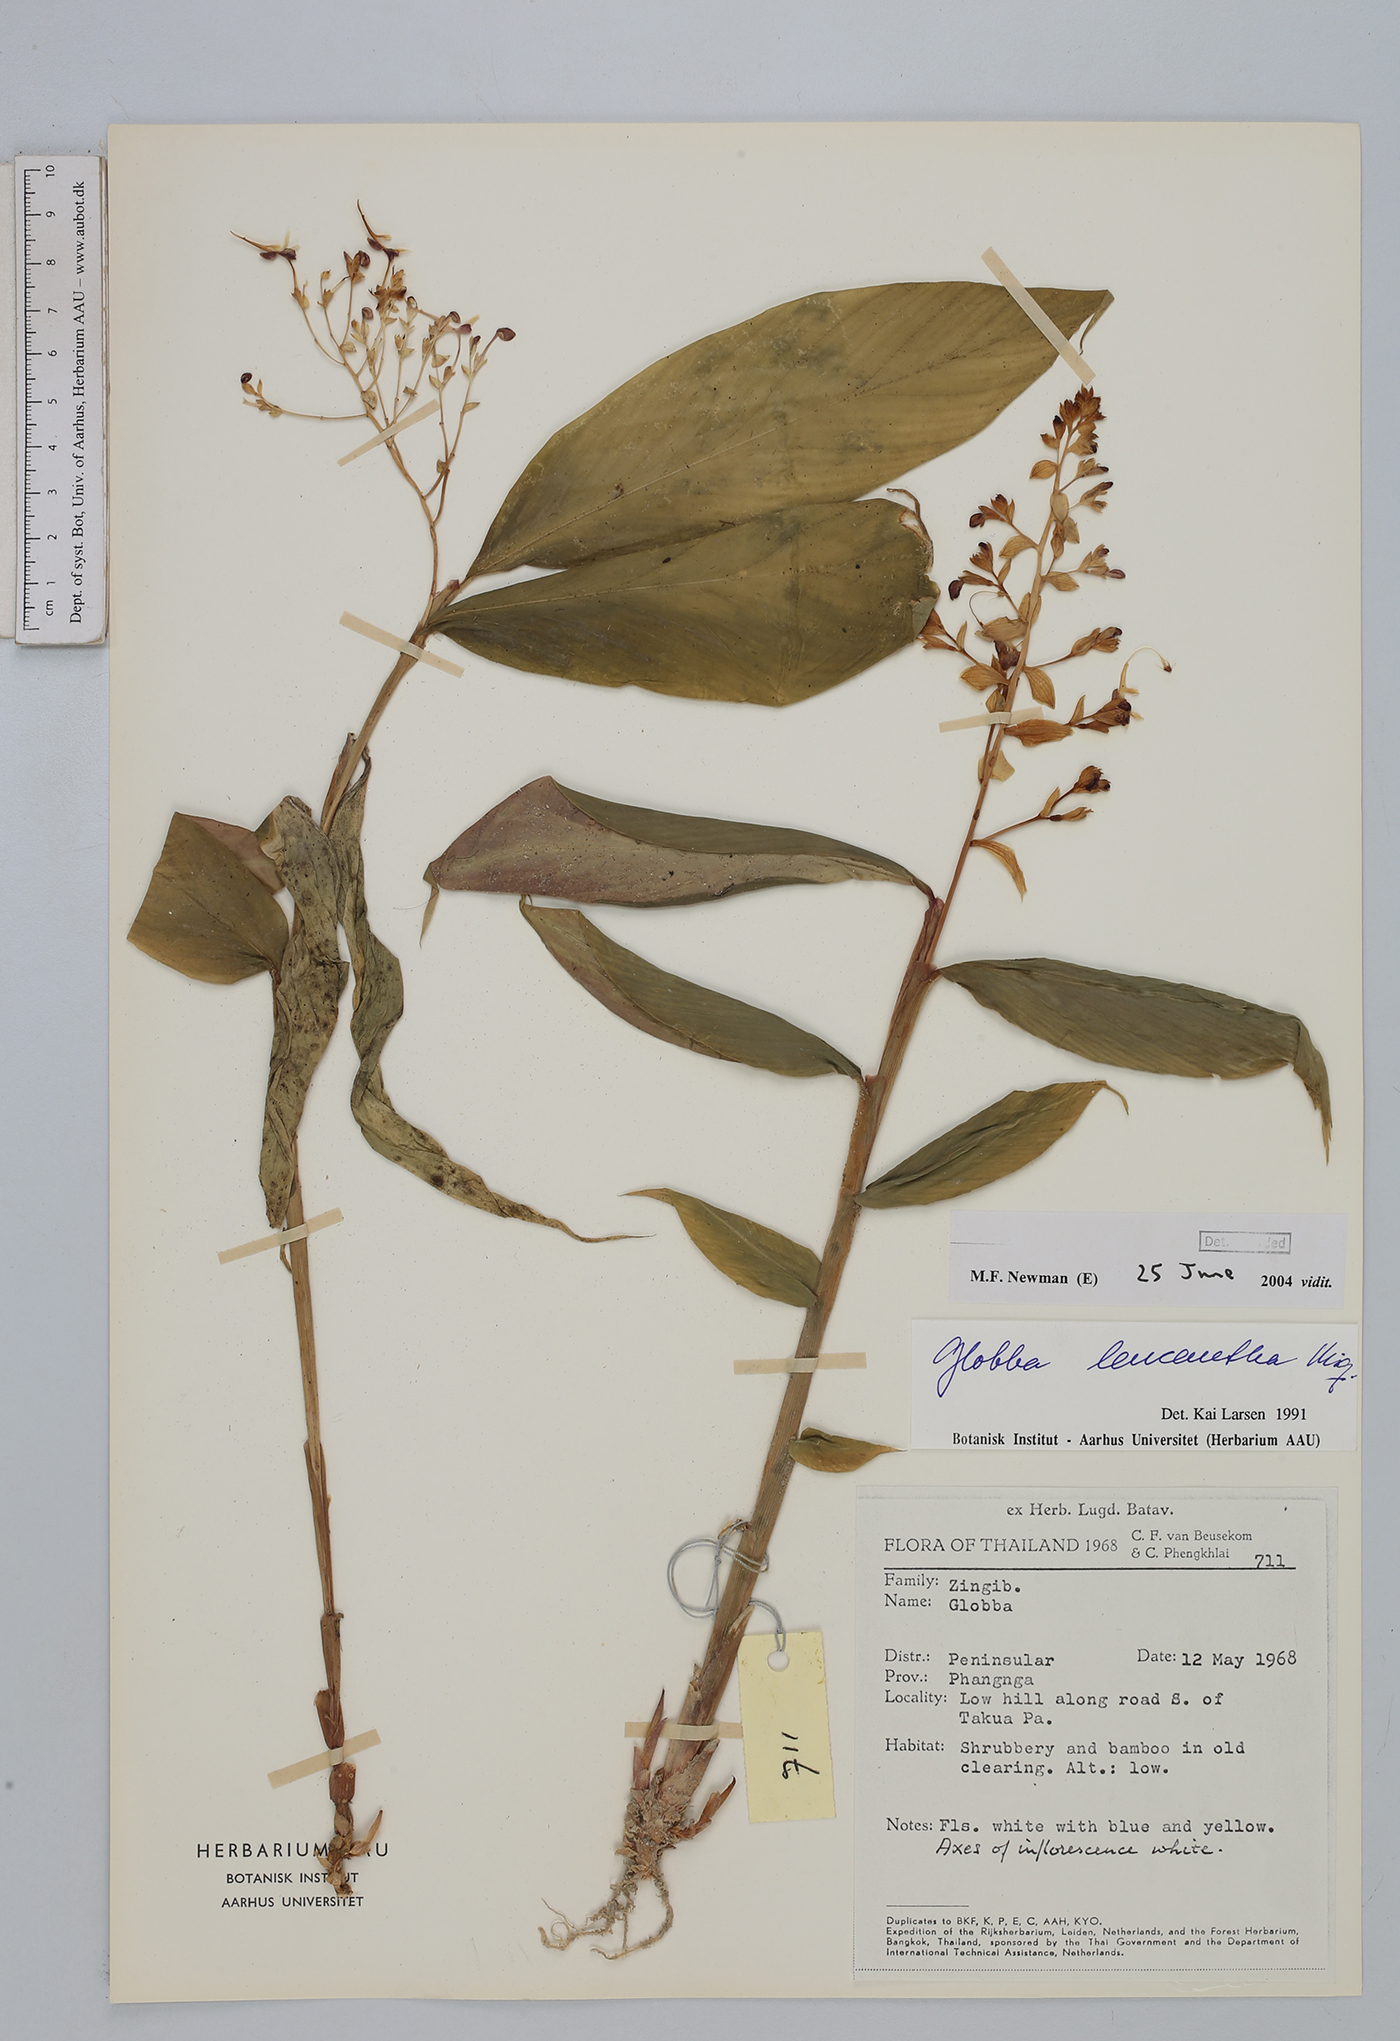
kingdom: Plantae
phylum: Tracheophyta
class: Liliopsida
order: Zingiberales
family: Zingiberaceae
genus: Globba
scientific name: Globba leucantha
